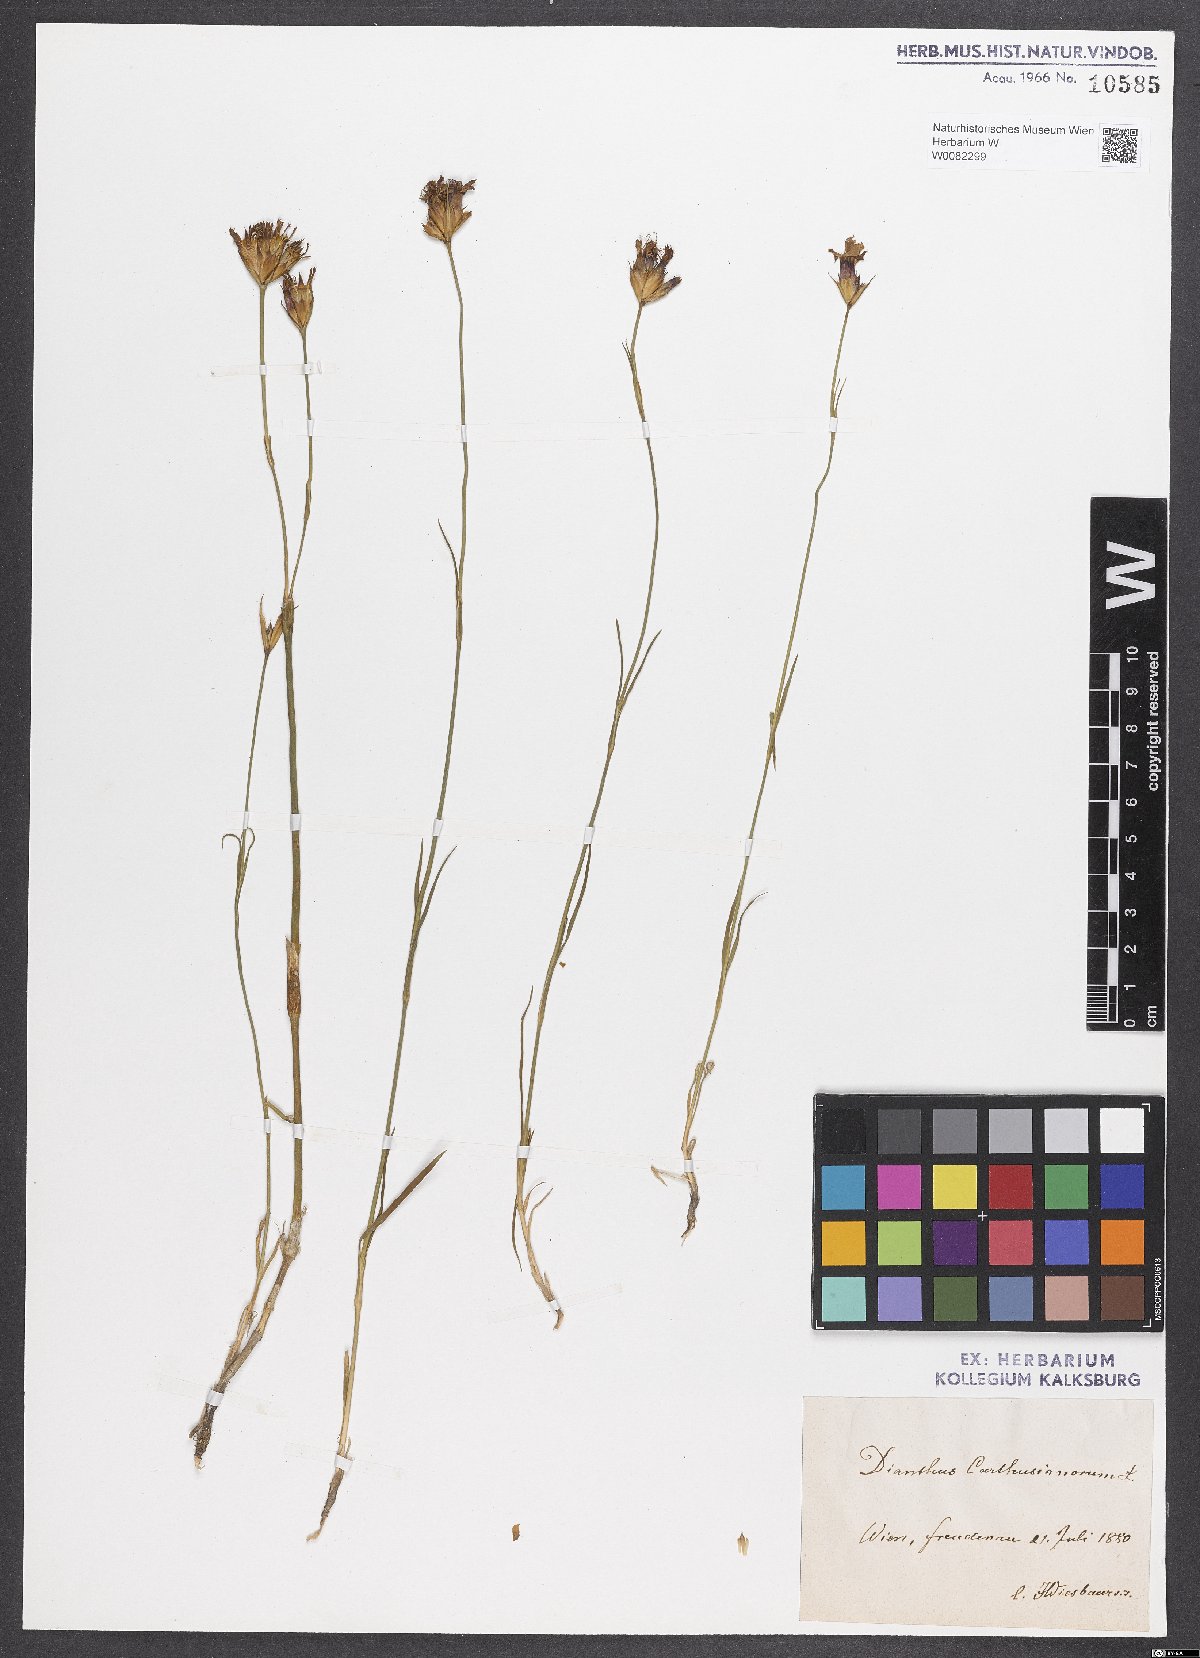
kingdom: Plantae
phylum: Tracheophyta
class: Magnoliopsida
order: Caryophyllales
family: Caryophyllaceae
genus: Dianthus
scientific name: Dianthus carthusianorum
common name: Carthusian pink
